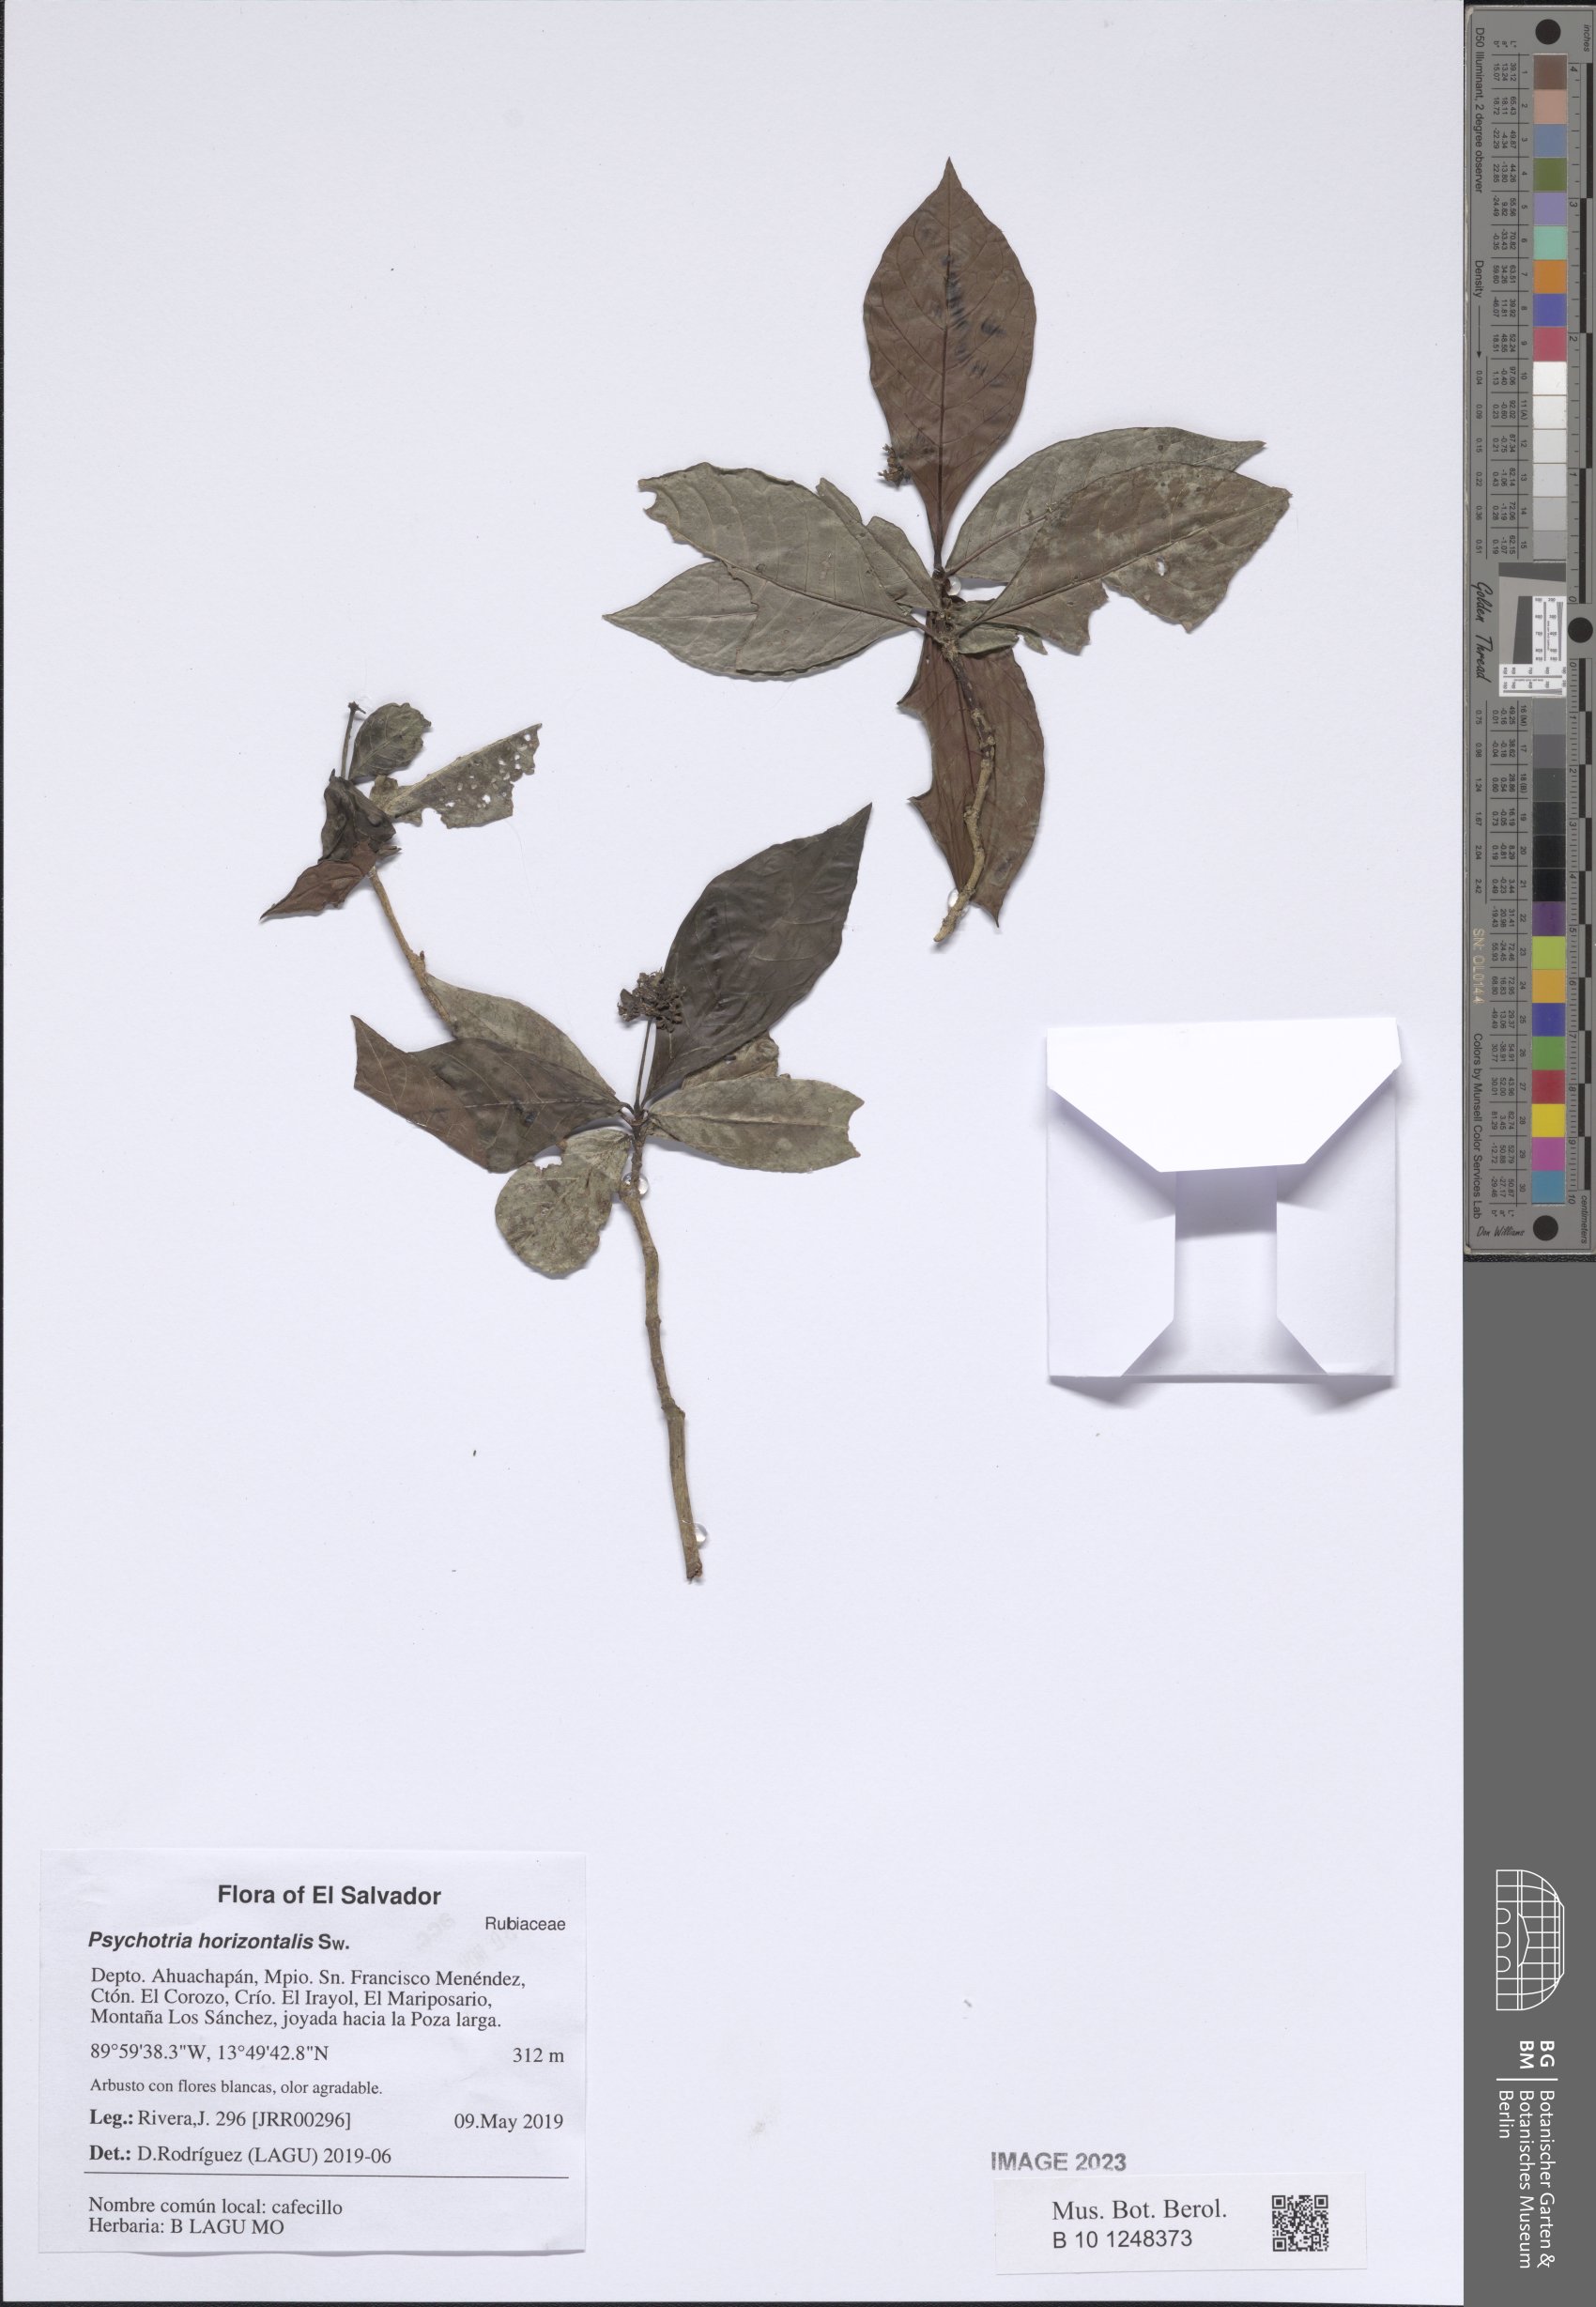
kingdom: Plantae
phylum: Tracheophyta
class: Magnoliopsida
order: Gentianales
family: Rubiaceae
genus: Psychotria
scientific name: Psychotria horizontalis
